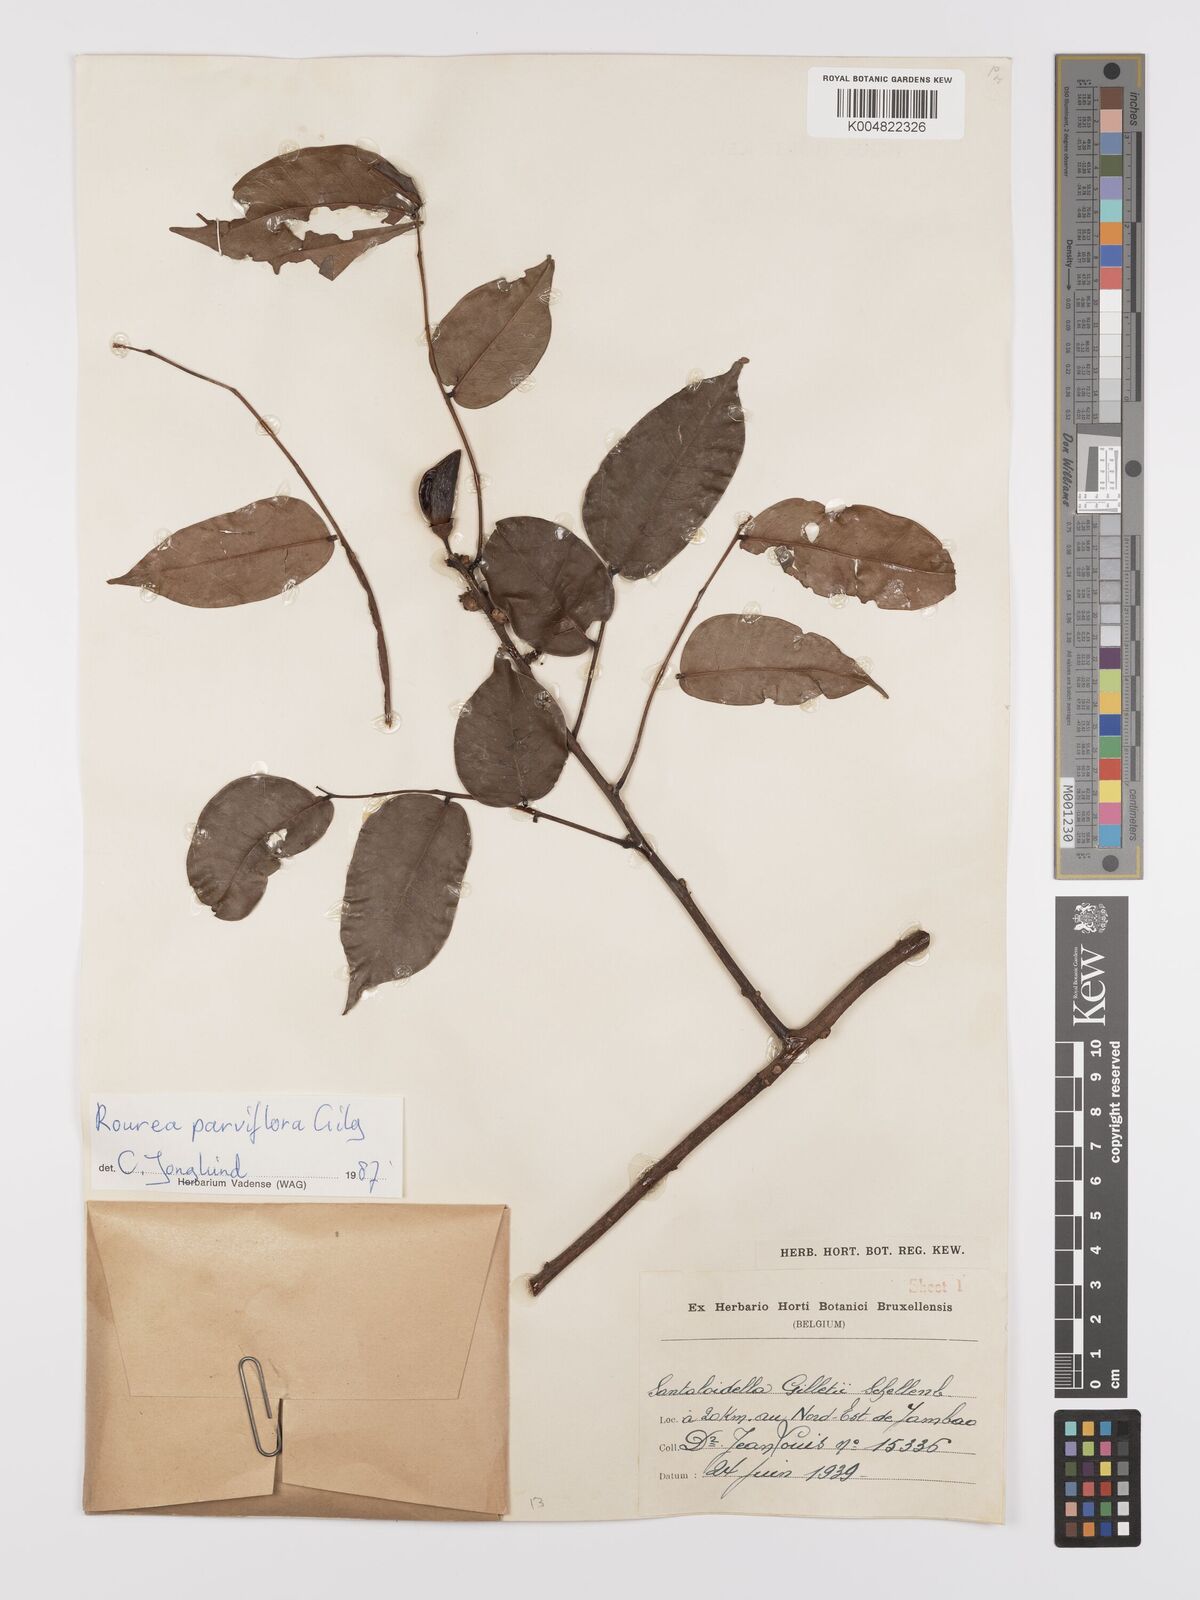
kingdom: Plantae
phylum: Tracheophyta
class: Magnoliopsida
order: Oxalidales
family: Connaraceae
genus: Rourea
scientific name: Rourea
